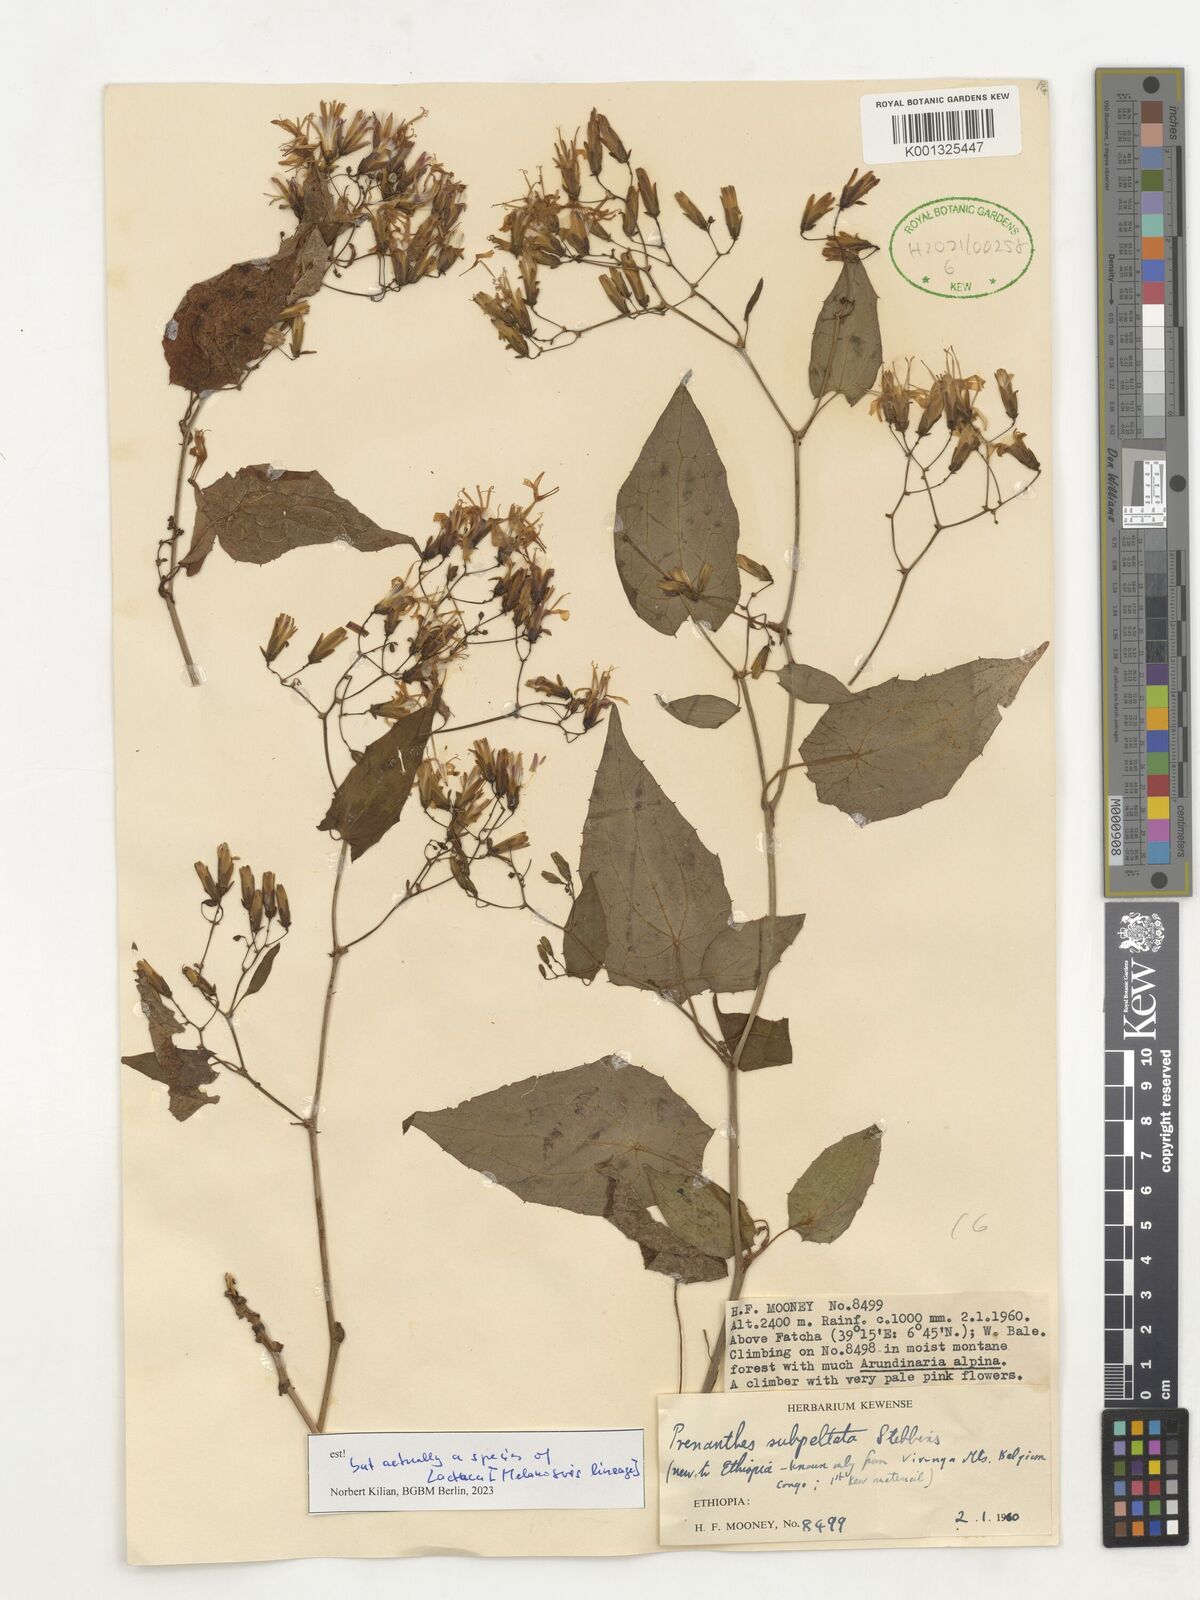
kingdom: Plantae
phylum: Tracheophyta
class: Magnoliopsida
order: Asterales
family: Asteraceae
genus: Prenanthes
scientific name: Prenanthes subpeltata
